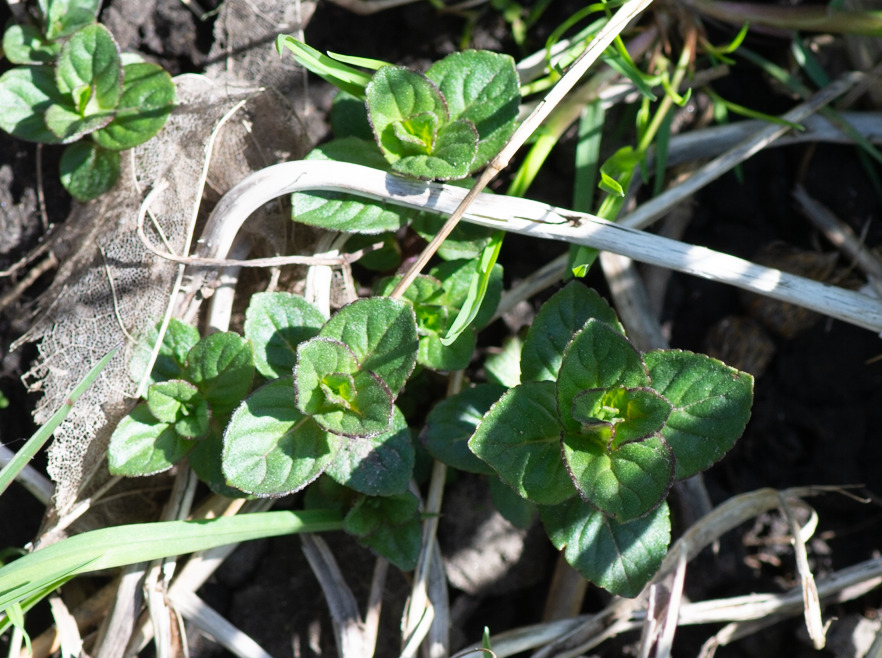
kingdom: Plantae
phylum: Tracheophyta
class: Magnoliopsida
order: Lamiales
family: Lamiaceae
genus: Mentha
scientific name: Mentha aquatica
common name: Vand-mynte
